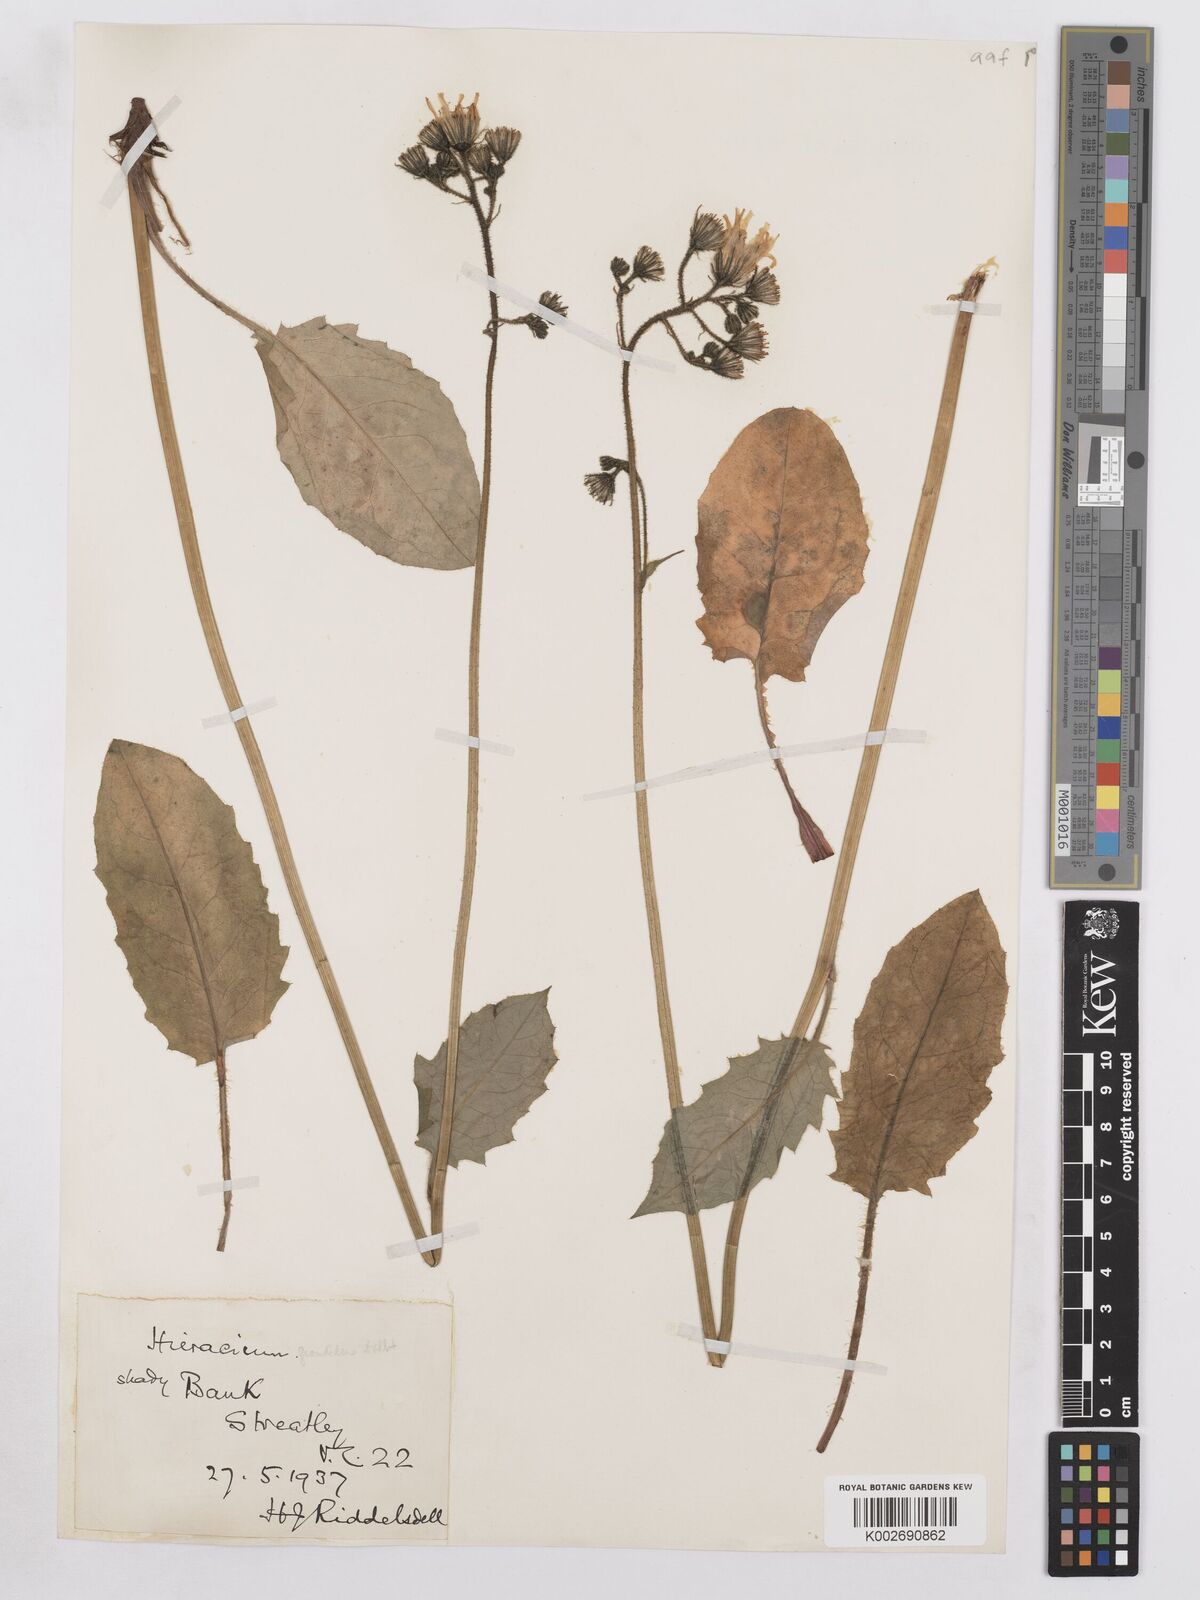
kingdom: Plantae
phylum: Tracheophyta
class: Magnoliopsida
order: Asterales
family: Asteraceae
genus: Hieracium
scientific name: Hieracium murorum
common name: Wall hawkweed
